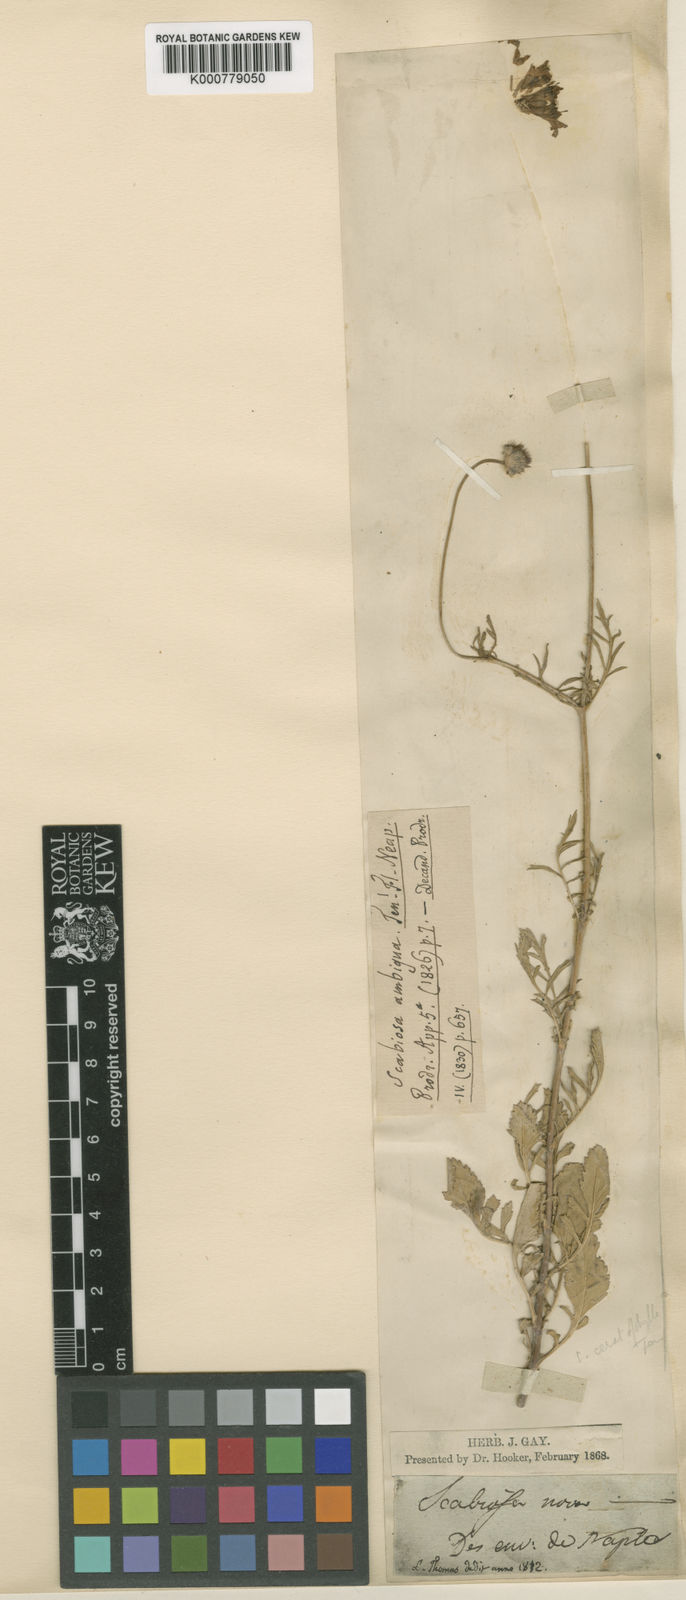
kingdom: Plantae
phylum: Tracheophyta
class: Magnoliopsida
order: Dipsacales
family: Caprifoliaceae
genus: Scabiosa
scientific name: Scabiosa columbaria
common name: Small scabious
